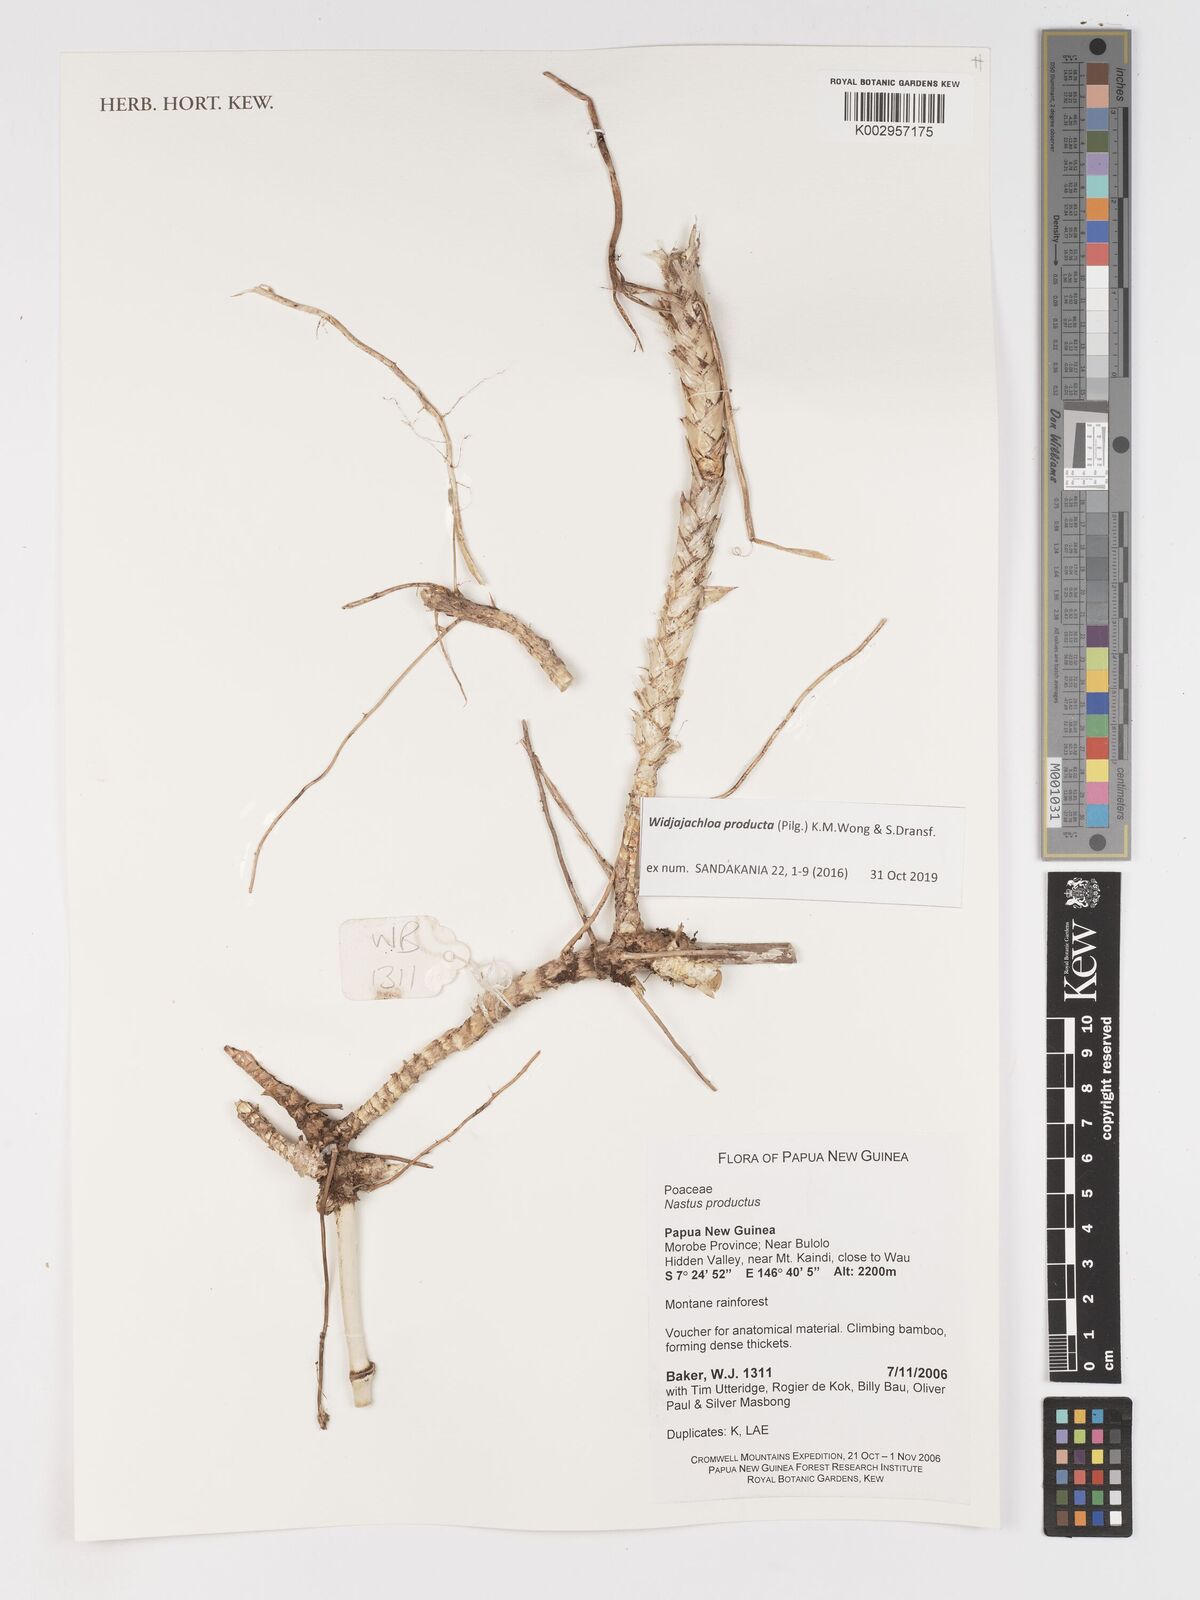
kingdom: Plantae
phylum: Tracheophyta
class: Liliopsida
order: Poales
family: Poaceae
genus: Widjajachloa
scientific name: Widjajachloa producta
